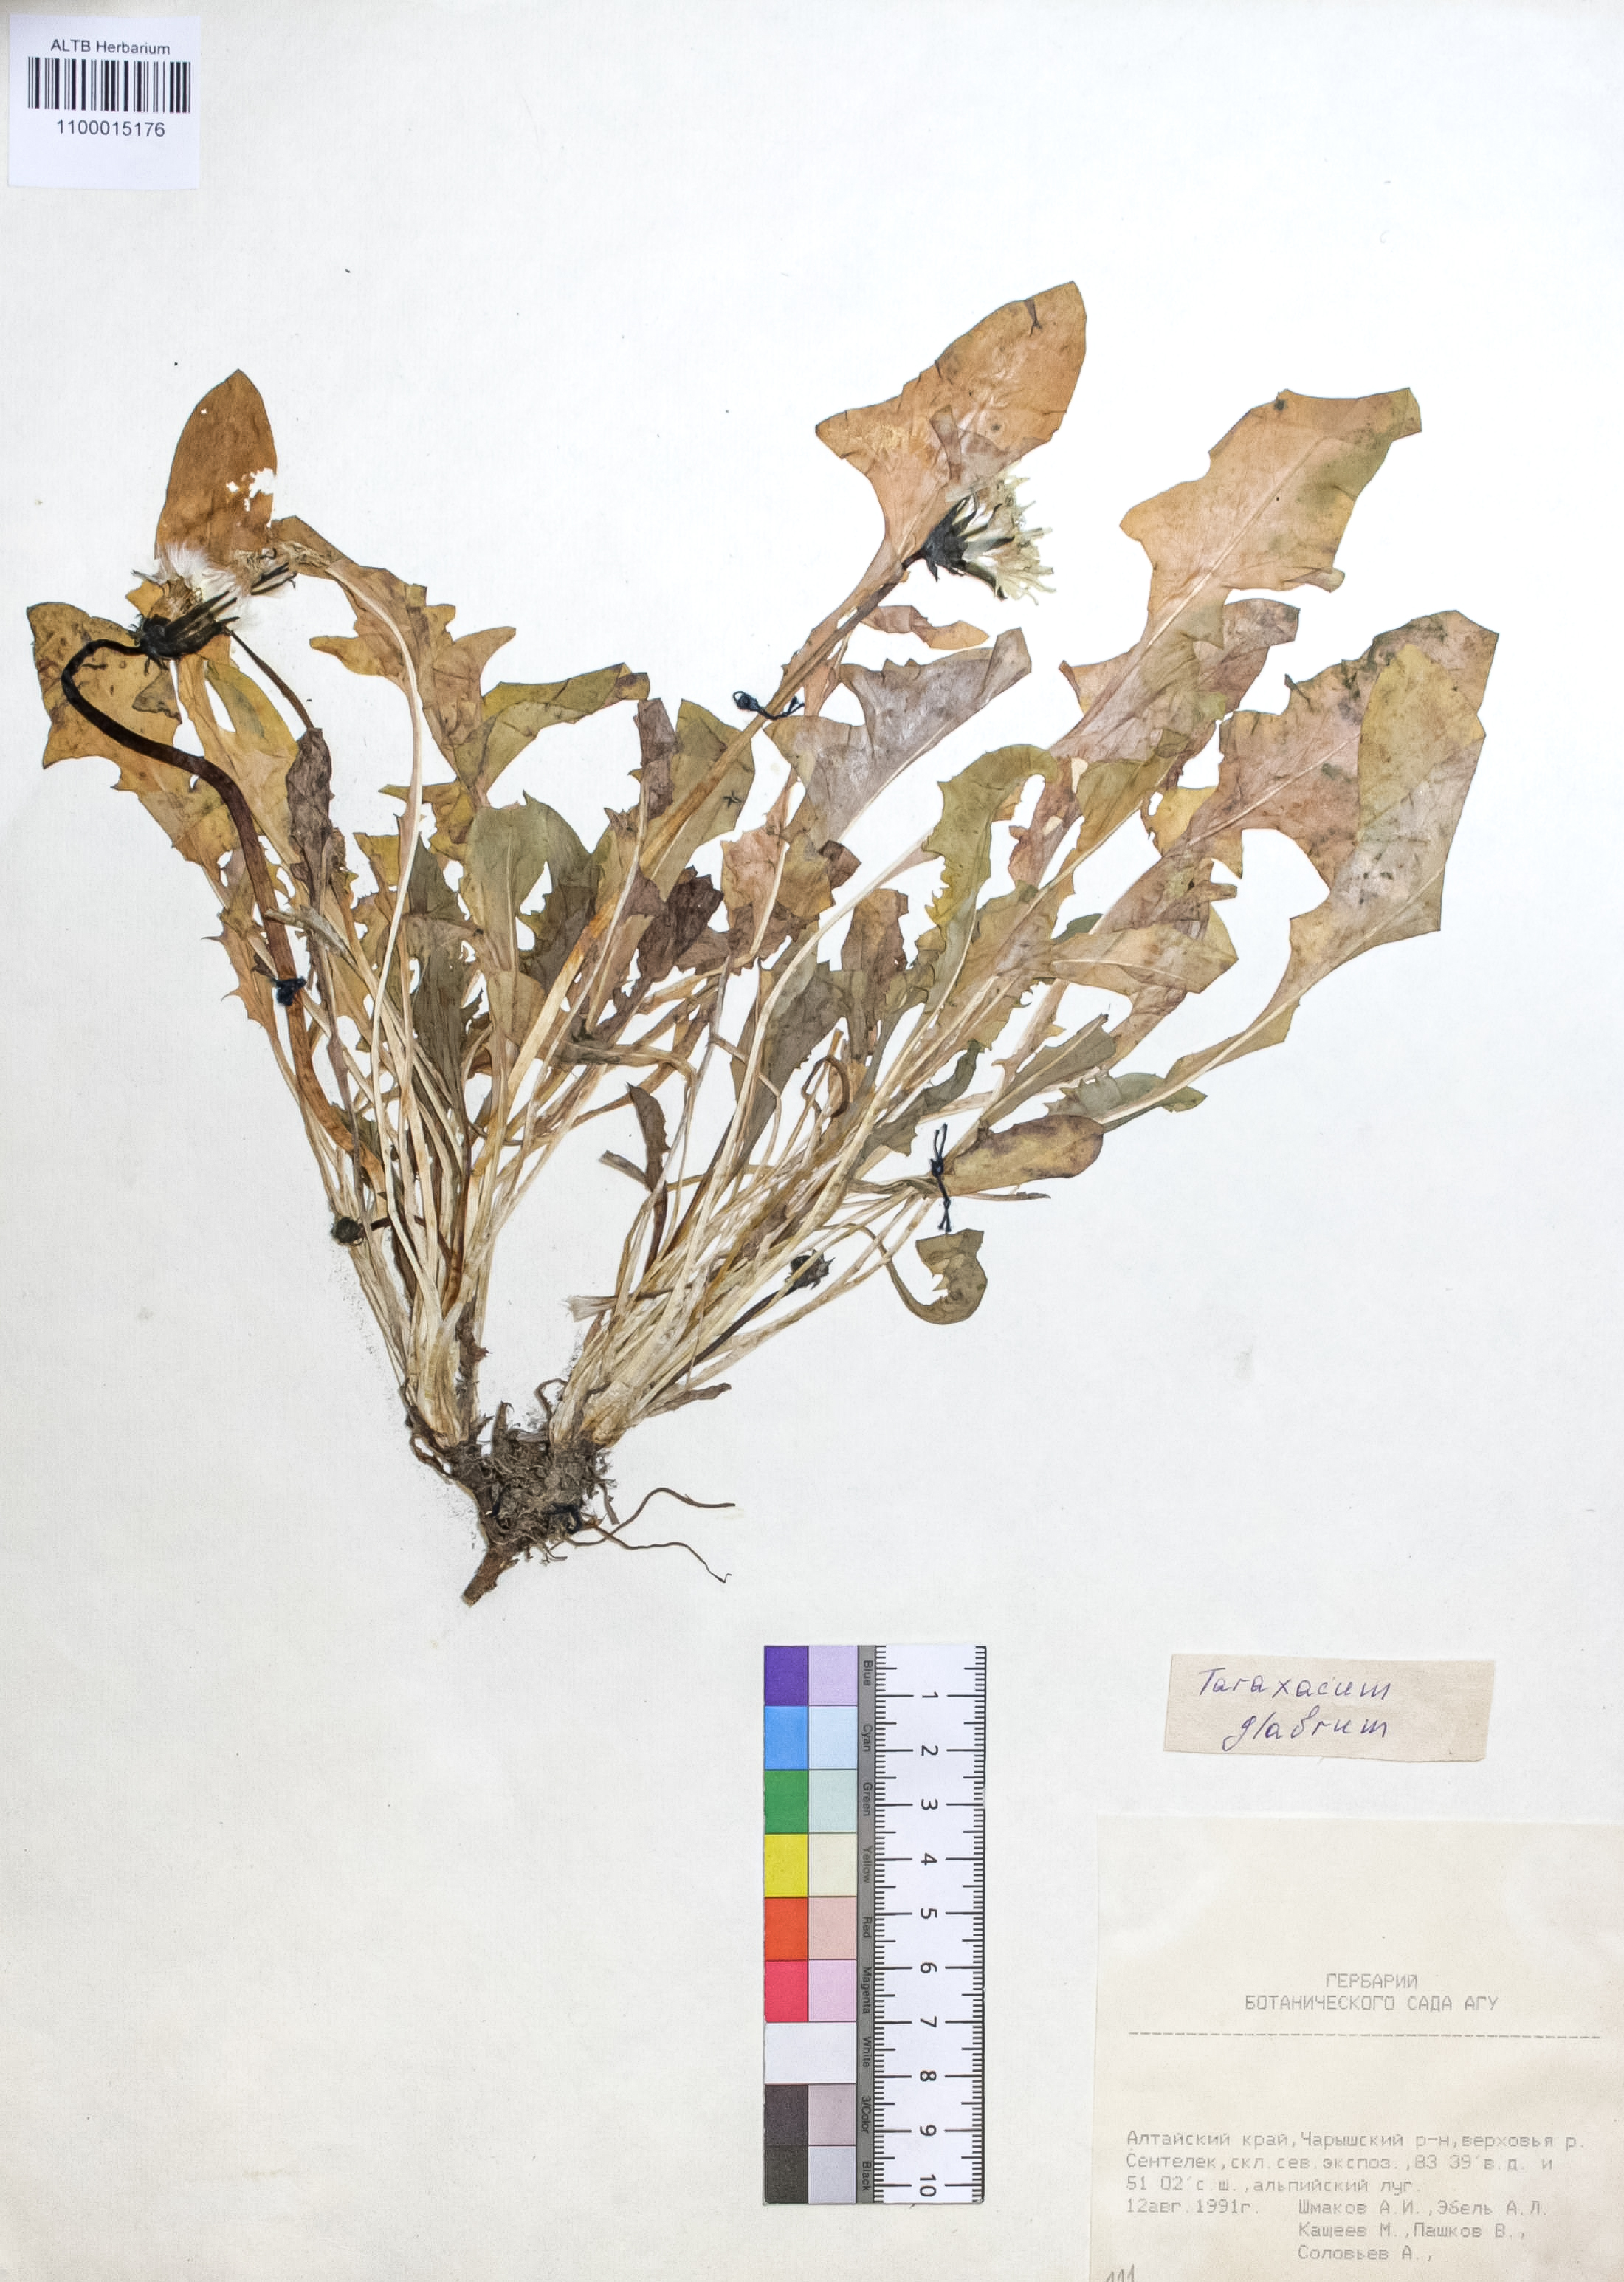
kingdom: Plantae
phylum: Tracheophyta
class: Magnoliopsida
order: Asterales
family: Asteraceae
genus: Taraxacum
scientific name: Taraxacum glabrum
